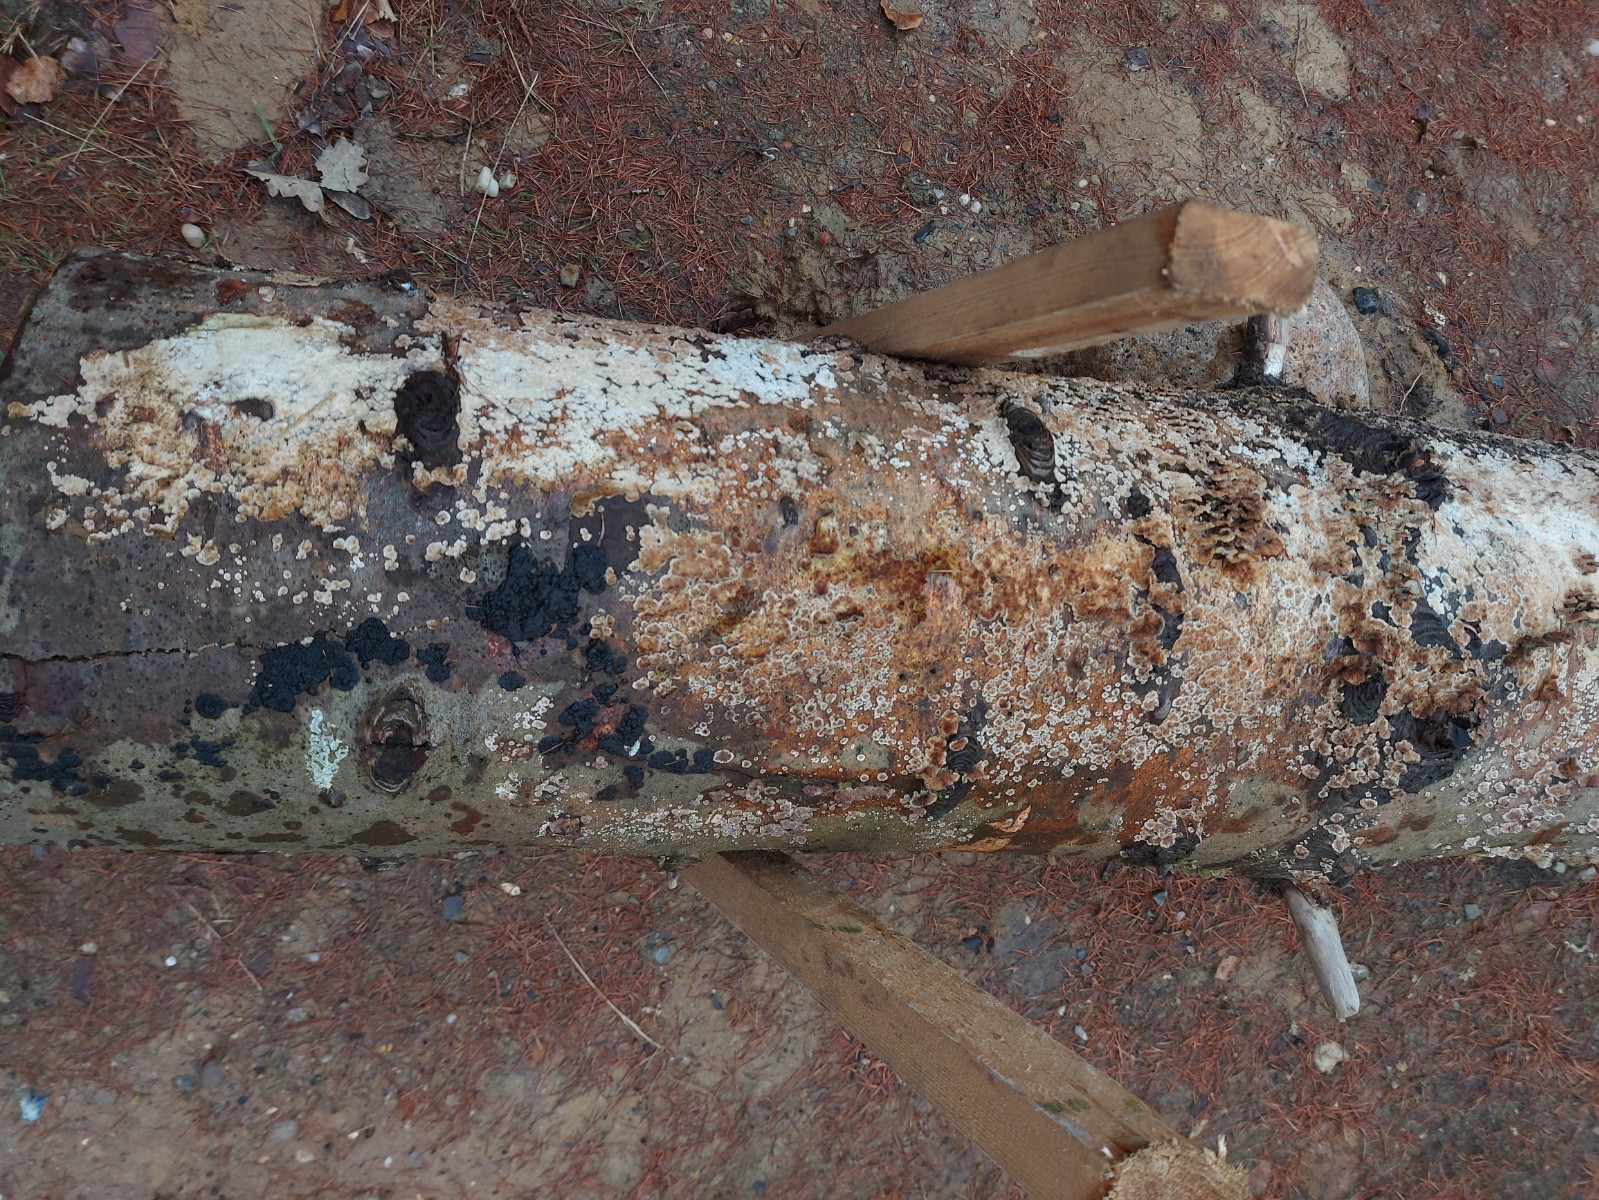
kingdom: Fungi
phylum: Basidiomycota
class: Agaricomycetes
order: Hymenochaetales
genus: Trichaptum
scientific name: Trichaptum abietinum
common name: almindelig violporesvamp
